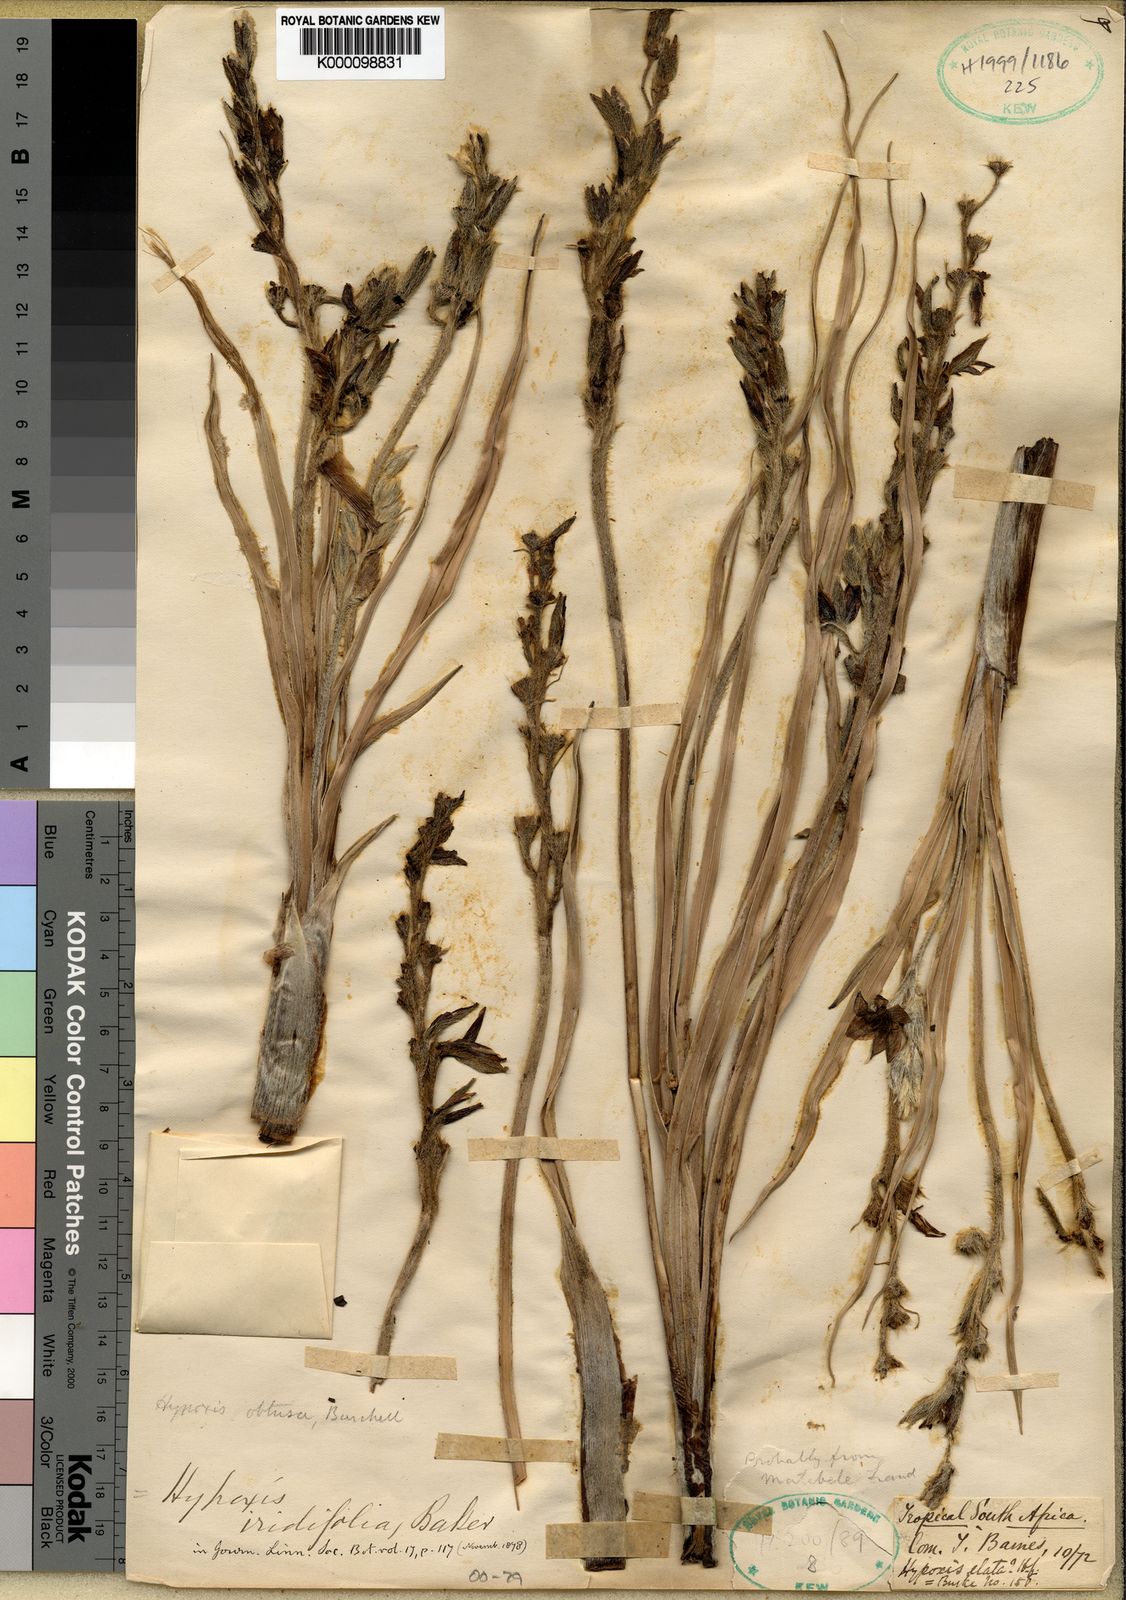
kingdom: Plantae
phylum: Tracheophyta
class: Liliopsida
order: Asparagales
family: Hypoxidaceae
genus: Hypoxis
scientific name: Hypoxis
